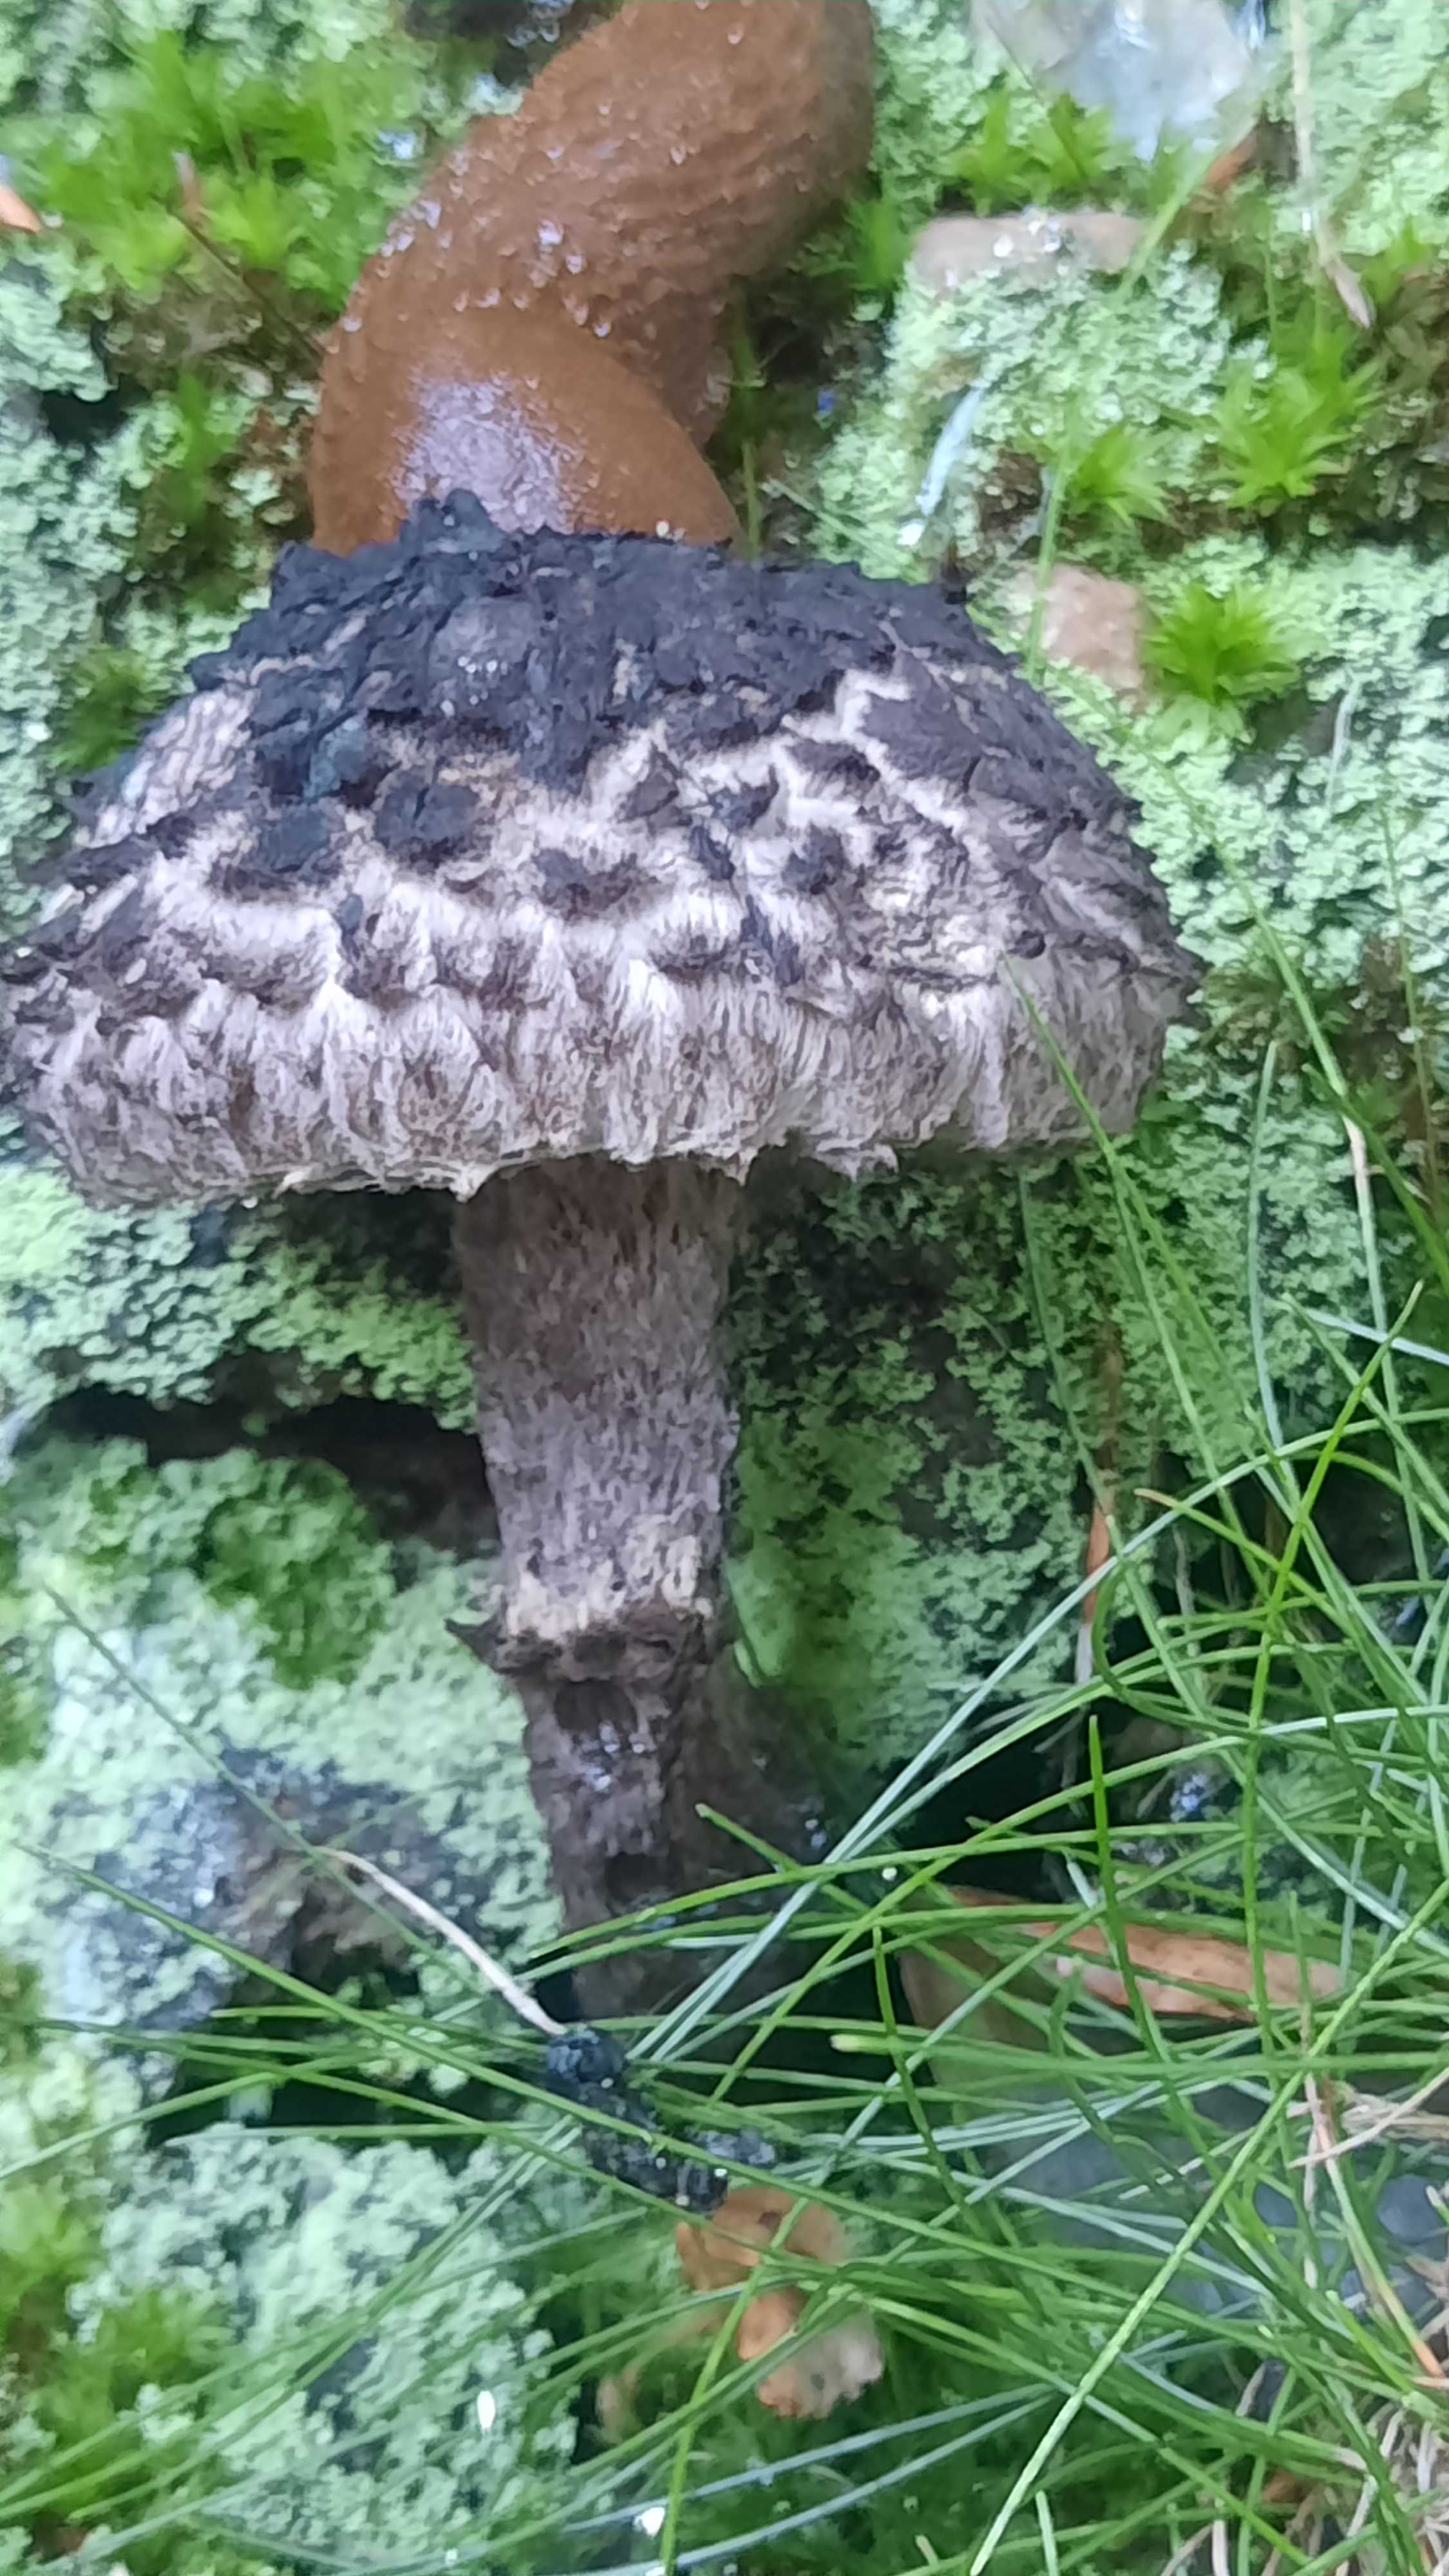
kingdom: Fungi
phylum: Basidiomycota
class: Agaricomycetes
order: Boletales
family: Boletaceae
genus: Strobilomyces
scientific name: Strobilomyces strobilaceus
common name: koglerørhat
